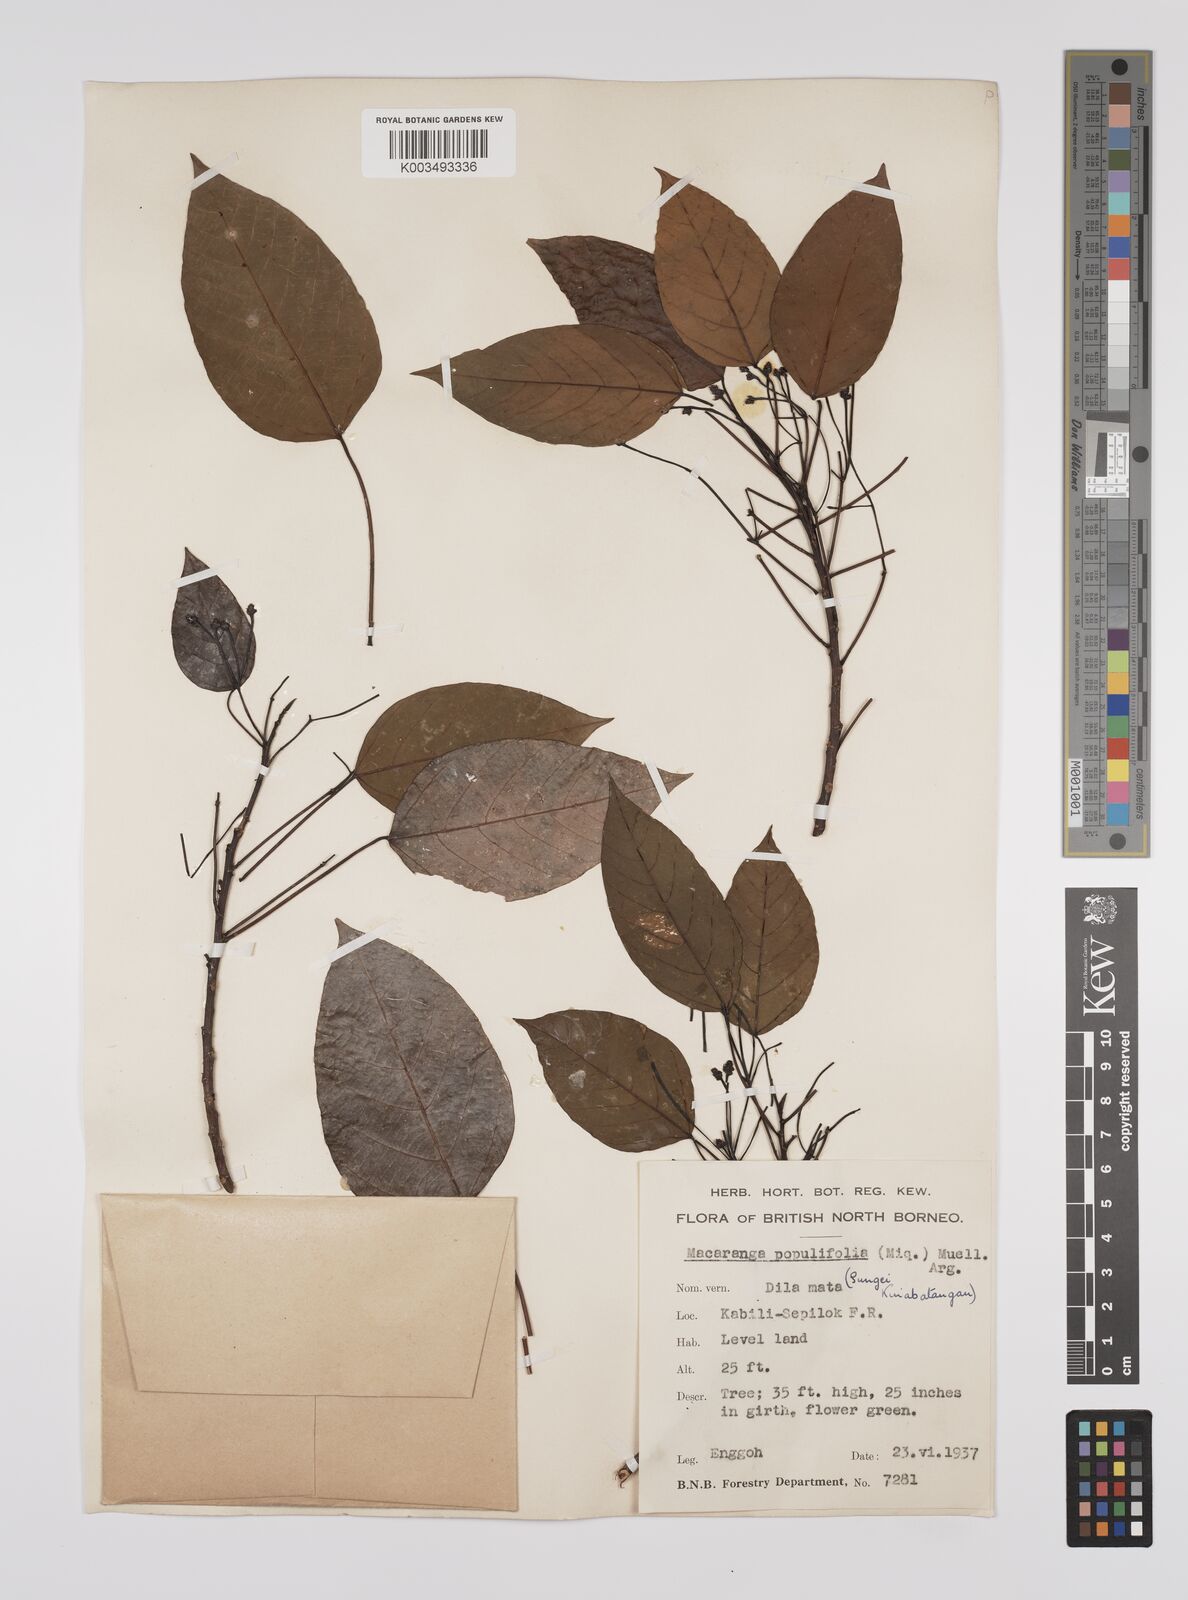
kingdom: Plantae
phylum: Tracheophyta
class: Magnoliopsida
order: Malpighiales
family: Euphorbiaceae
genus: Macaranga
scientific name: Macaranga conifera
